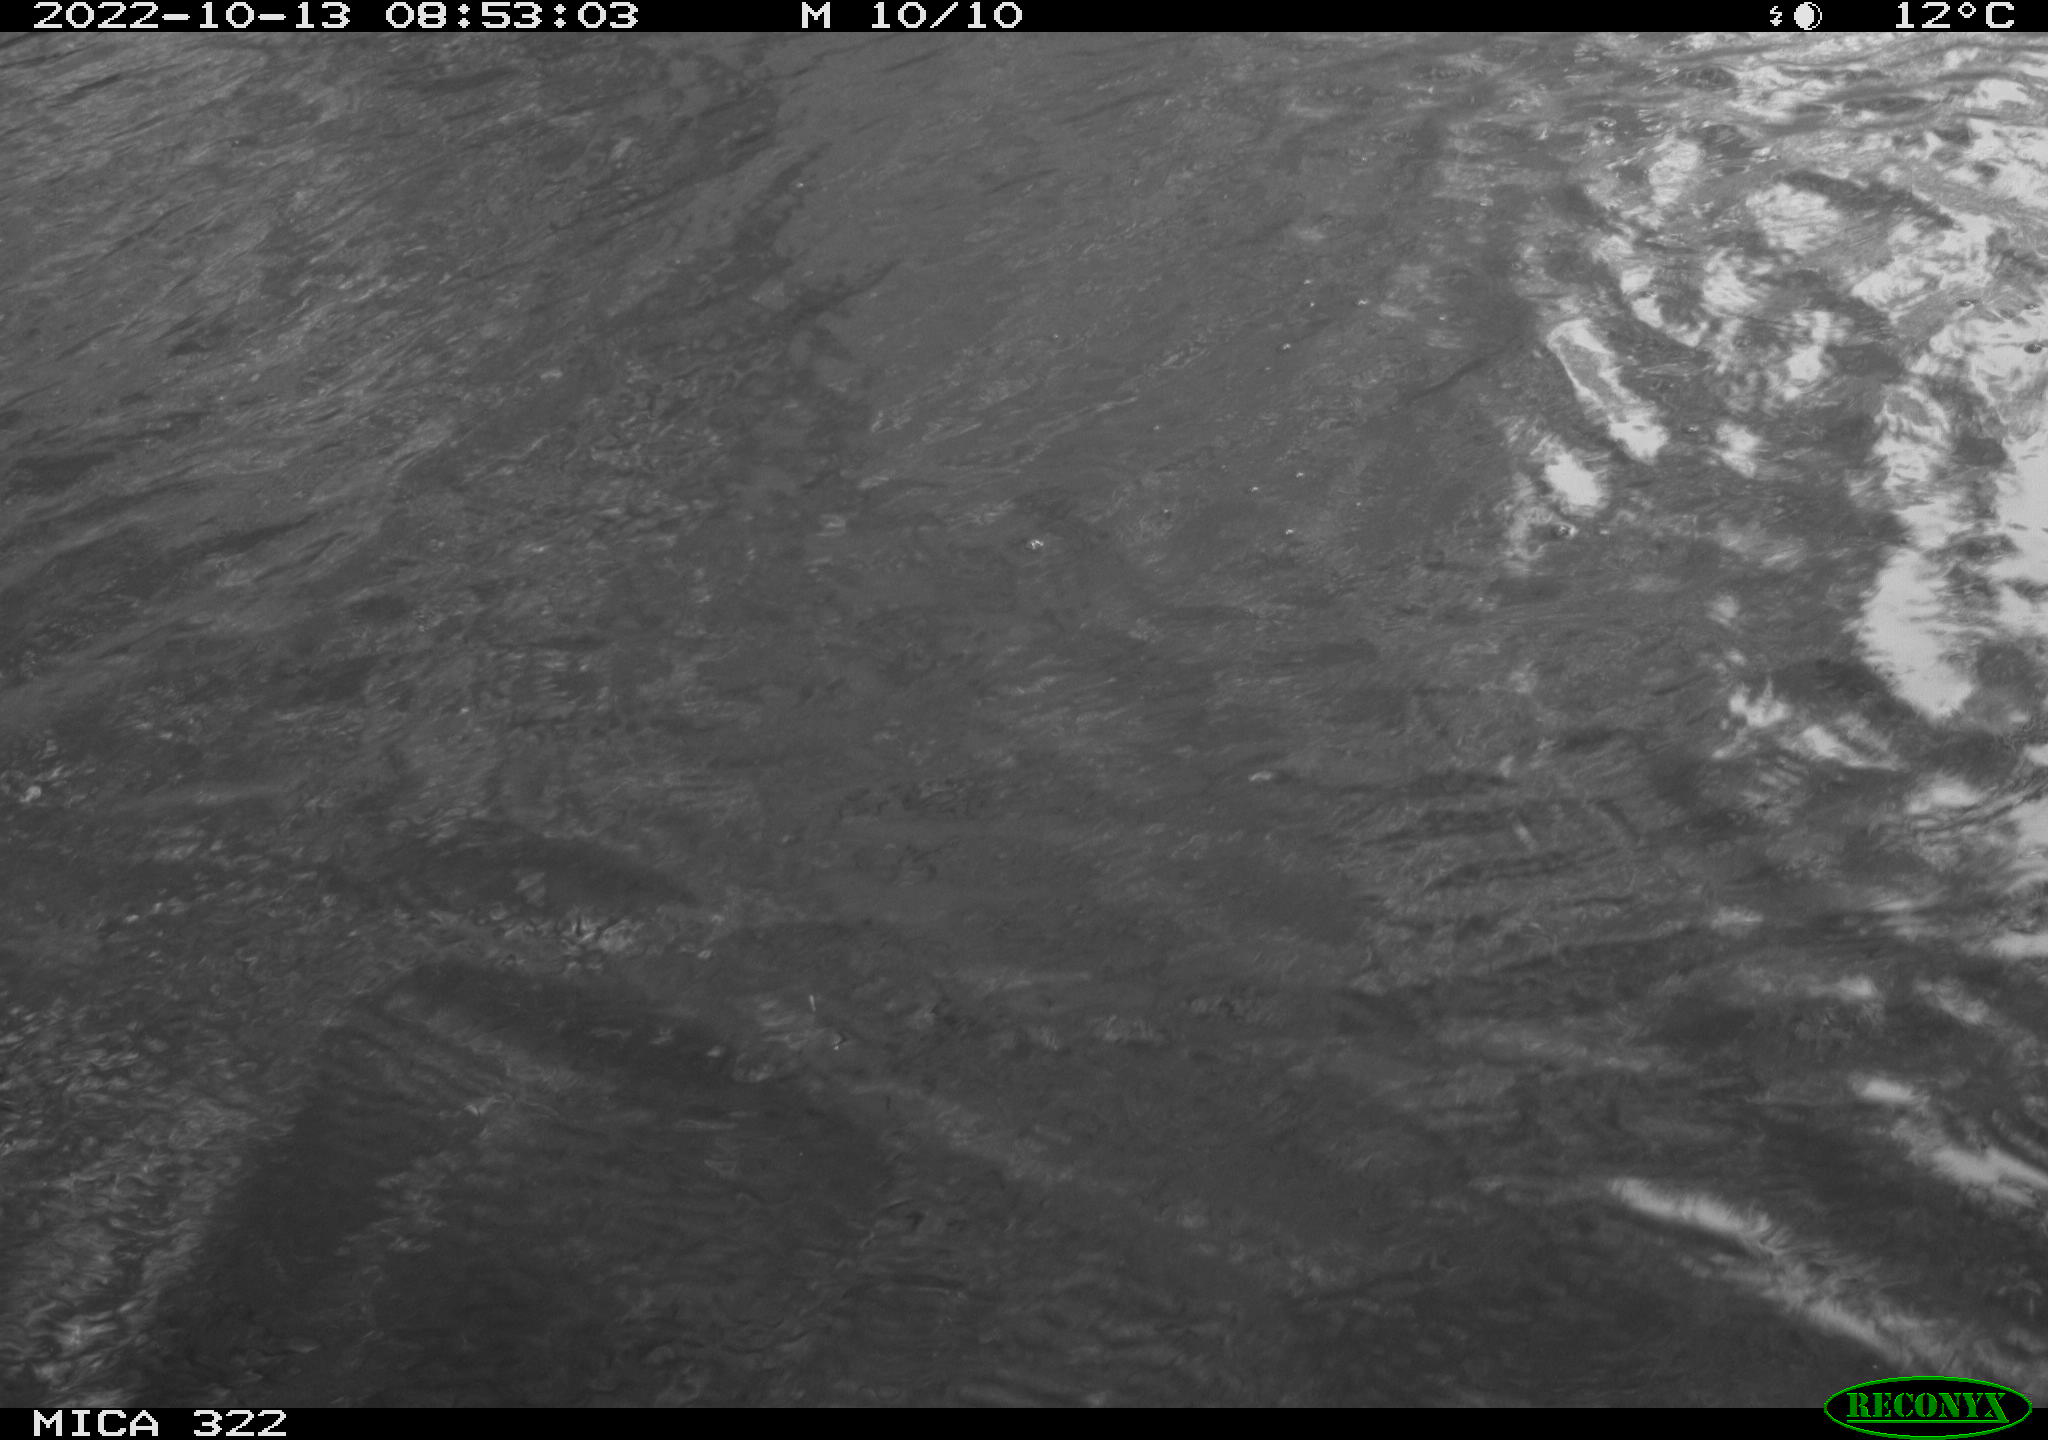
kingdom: Animalia
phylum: Chordata
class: Aves
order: Gruiformes
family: Rallidae
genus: Gallinula
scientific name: Gallinula chloropus
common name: Common moorhen
